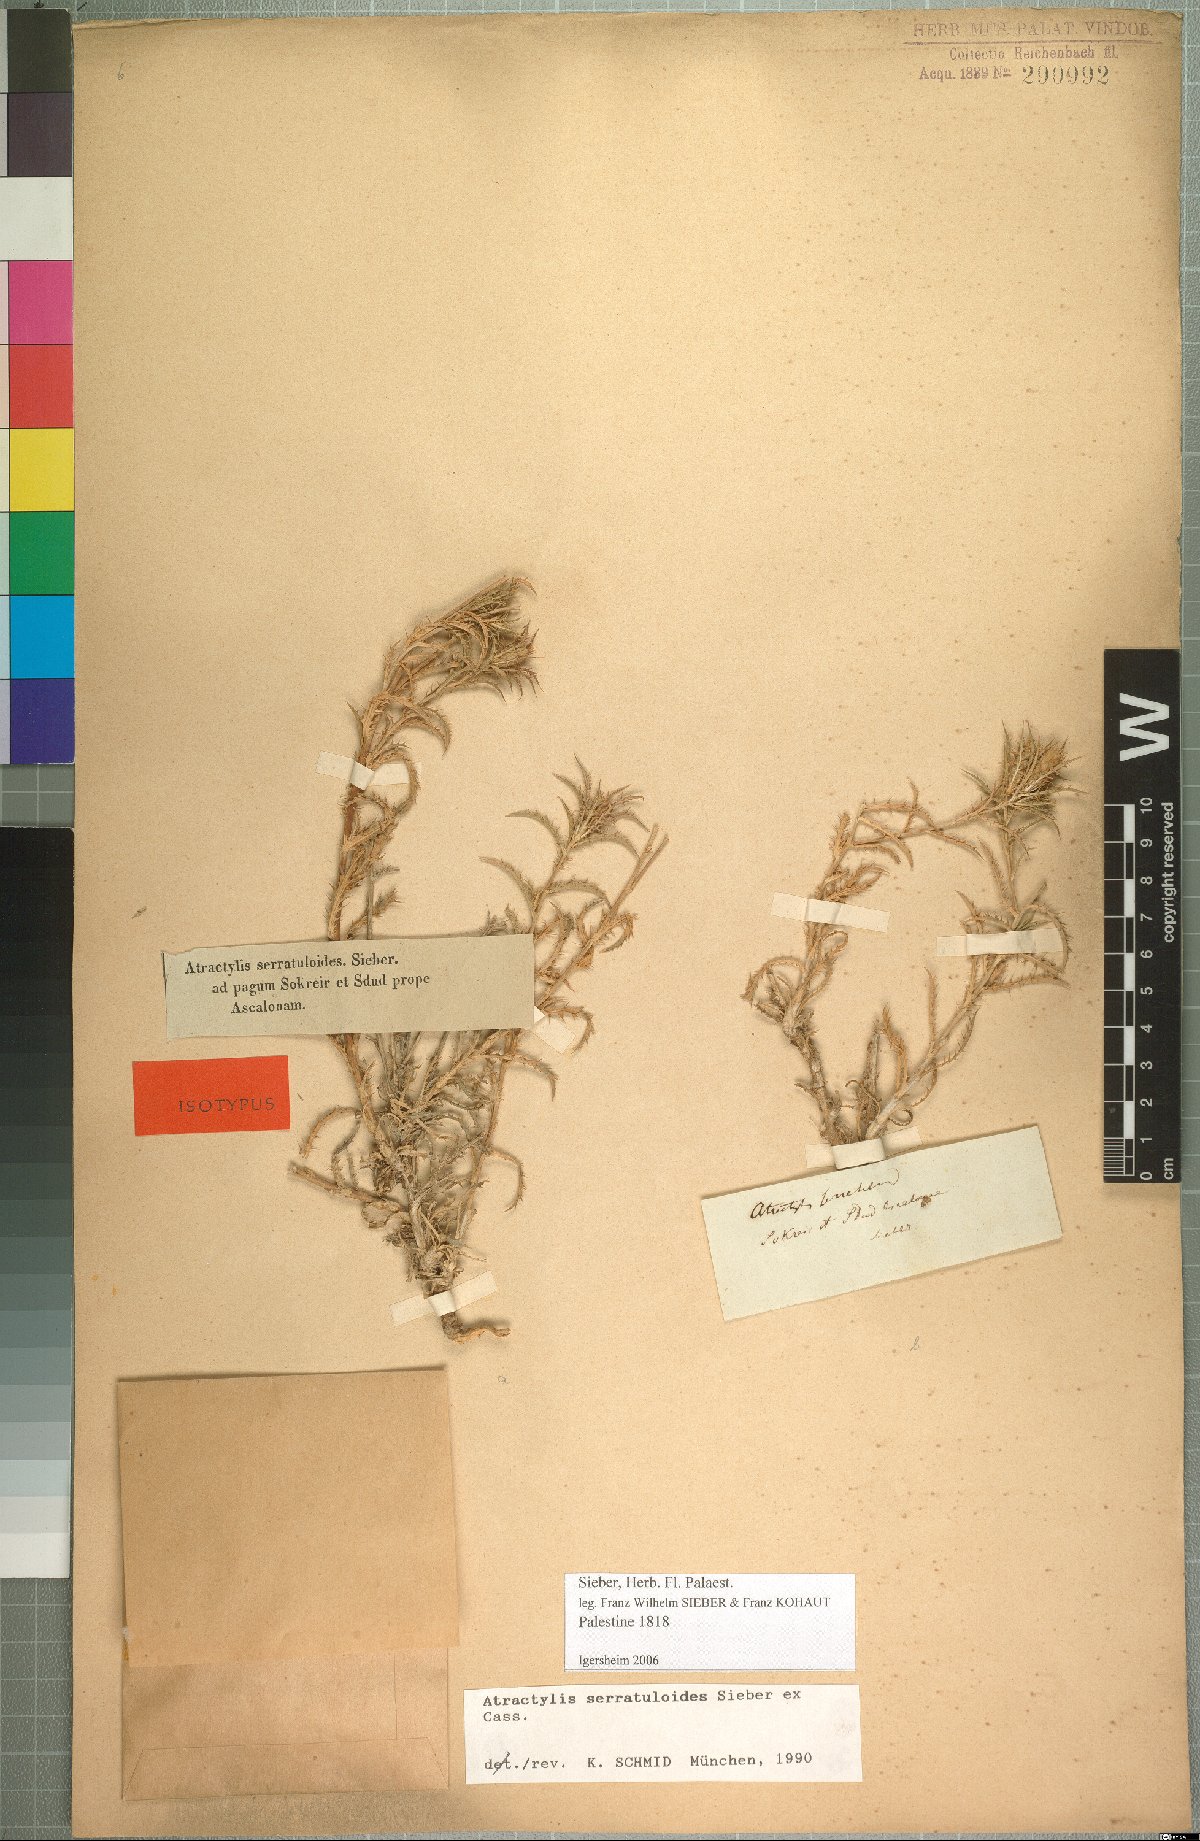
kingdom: Plantae
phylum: Tracheophyta
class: Magnoliopsida
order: Asterales
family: Asteraceae
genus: Atractylis
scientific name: Atractylis serratuloides
